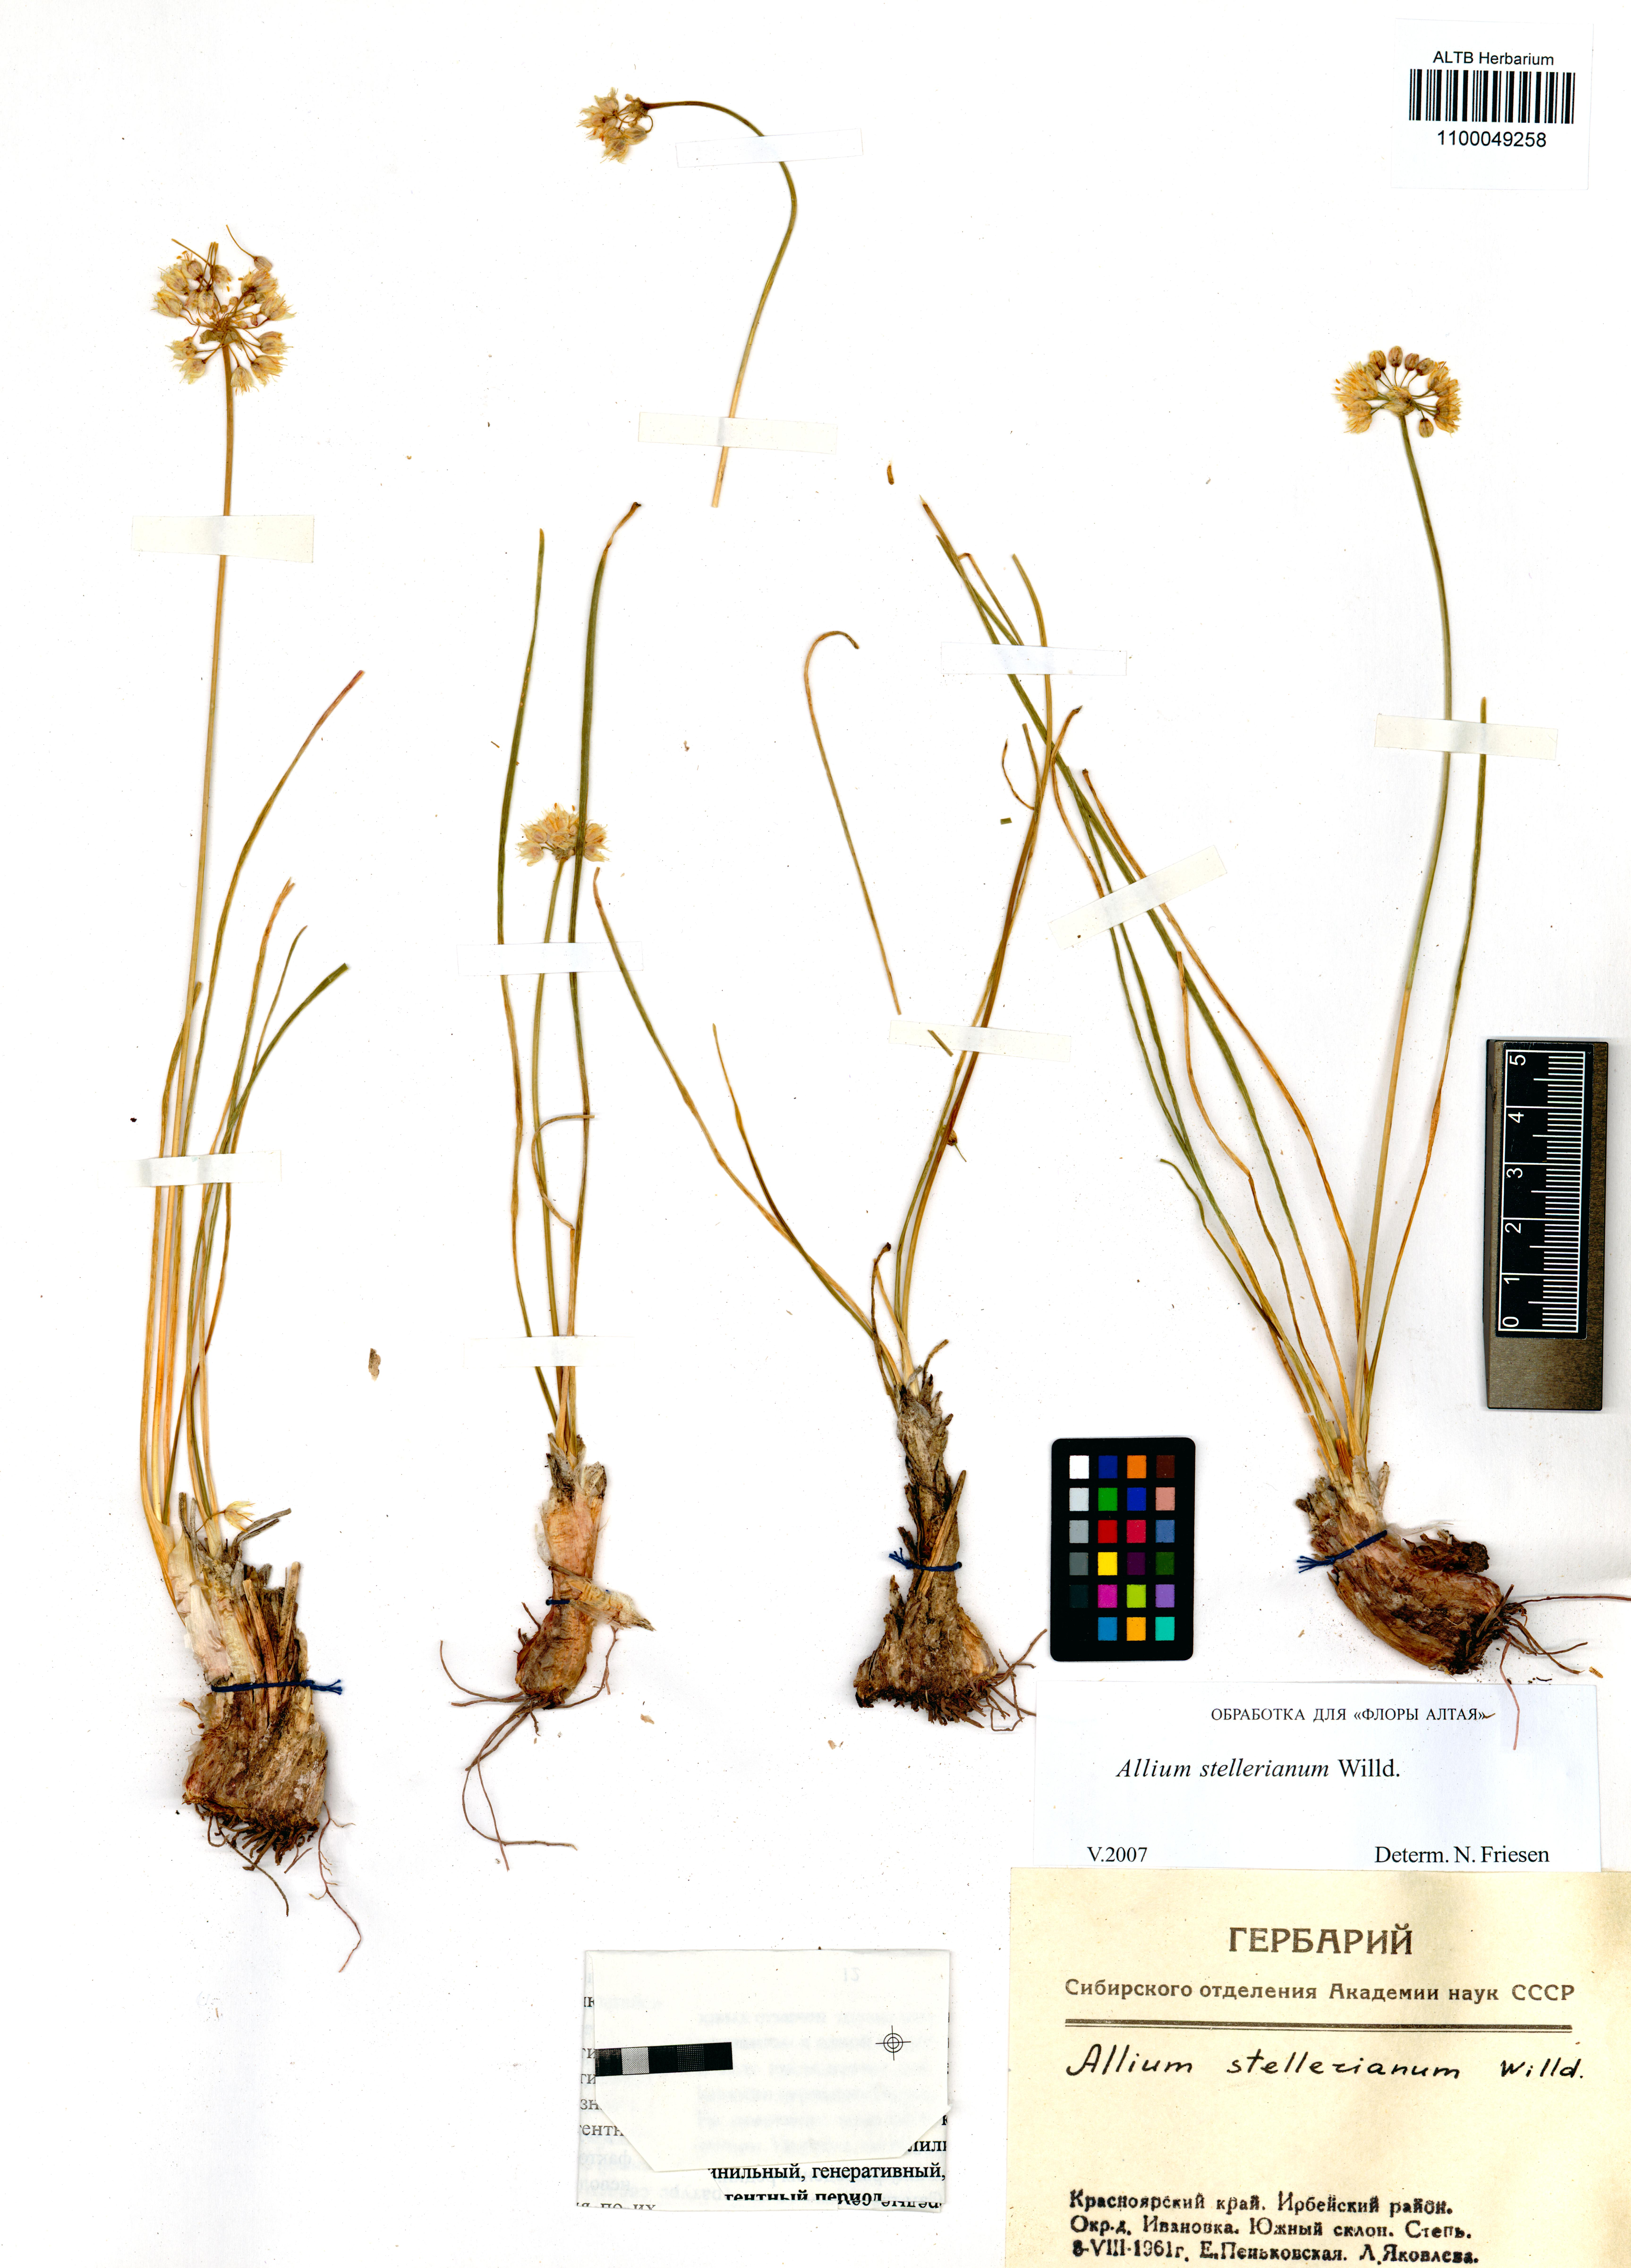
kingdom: Plantae
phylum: Tracheophyta
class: Liliopsida
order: Asparagales
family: Amaryllidaceae
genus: Allium
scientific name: Allium stellerianum
